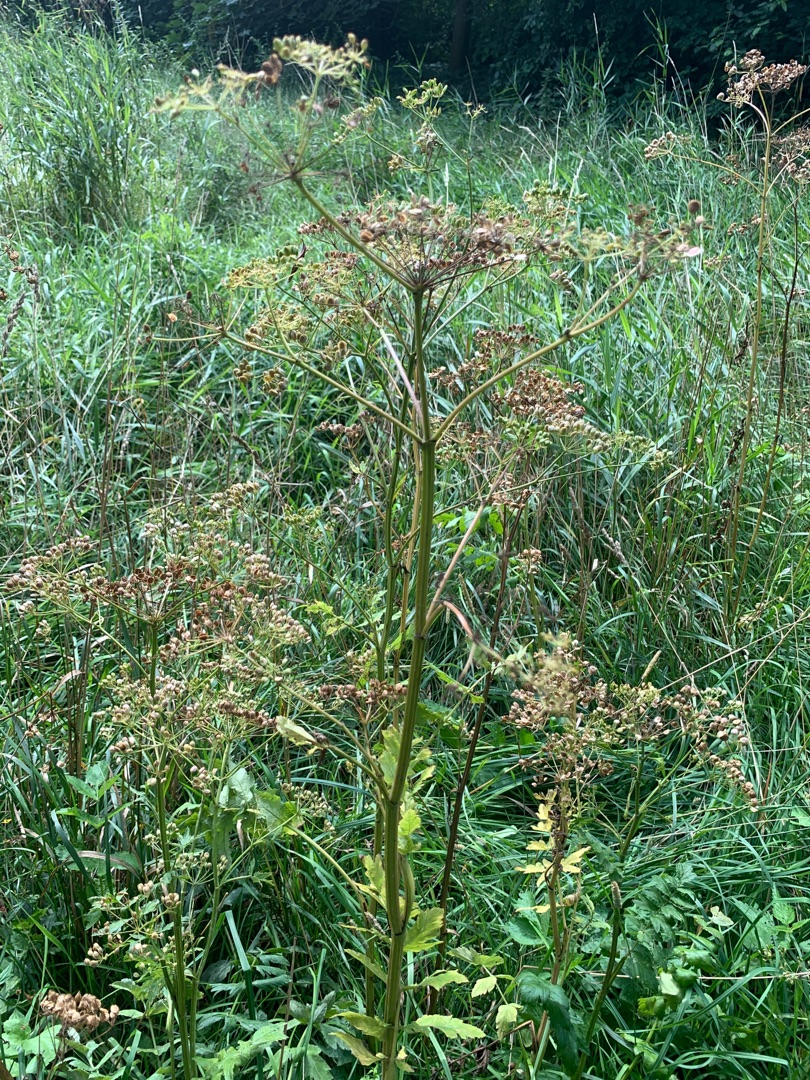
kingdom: Plantae
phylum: Tracheophyta
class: Magnoliopsida
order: Apiales
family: Apiaceae
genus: Pastinaca
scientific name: Pastinaca sativa
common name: Pastinak
